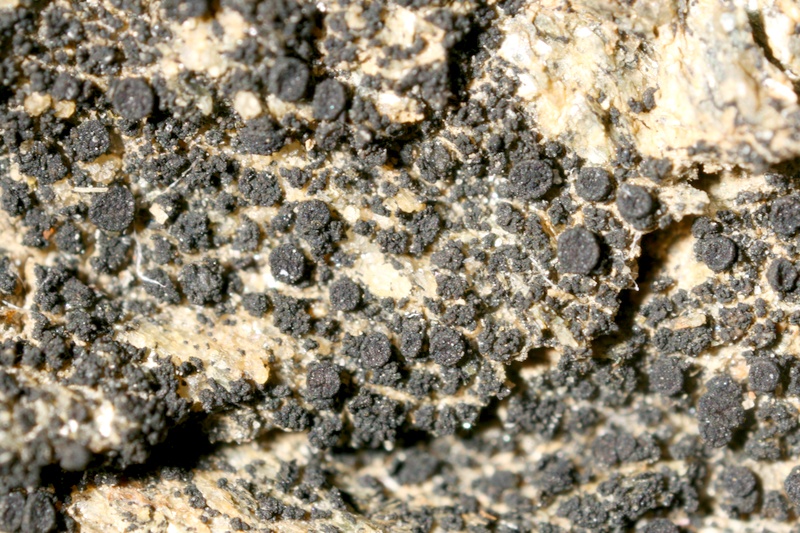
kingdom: Fungi
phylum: Ascomycota
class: Lichinomycetes
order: Lichinales
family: Lichinaceae
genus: Psorotichia
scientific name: Psorotichia murorum
